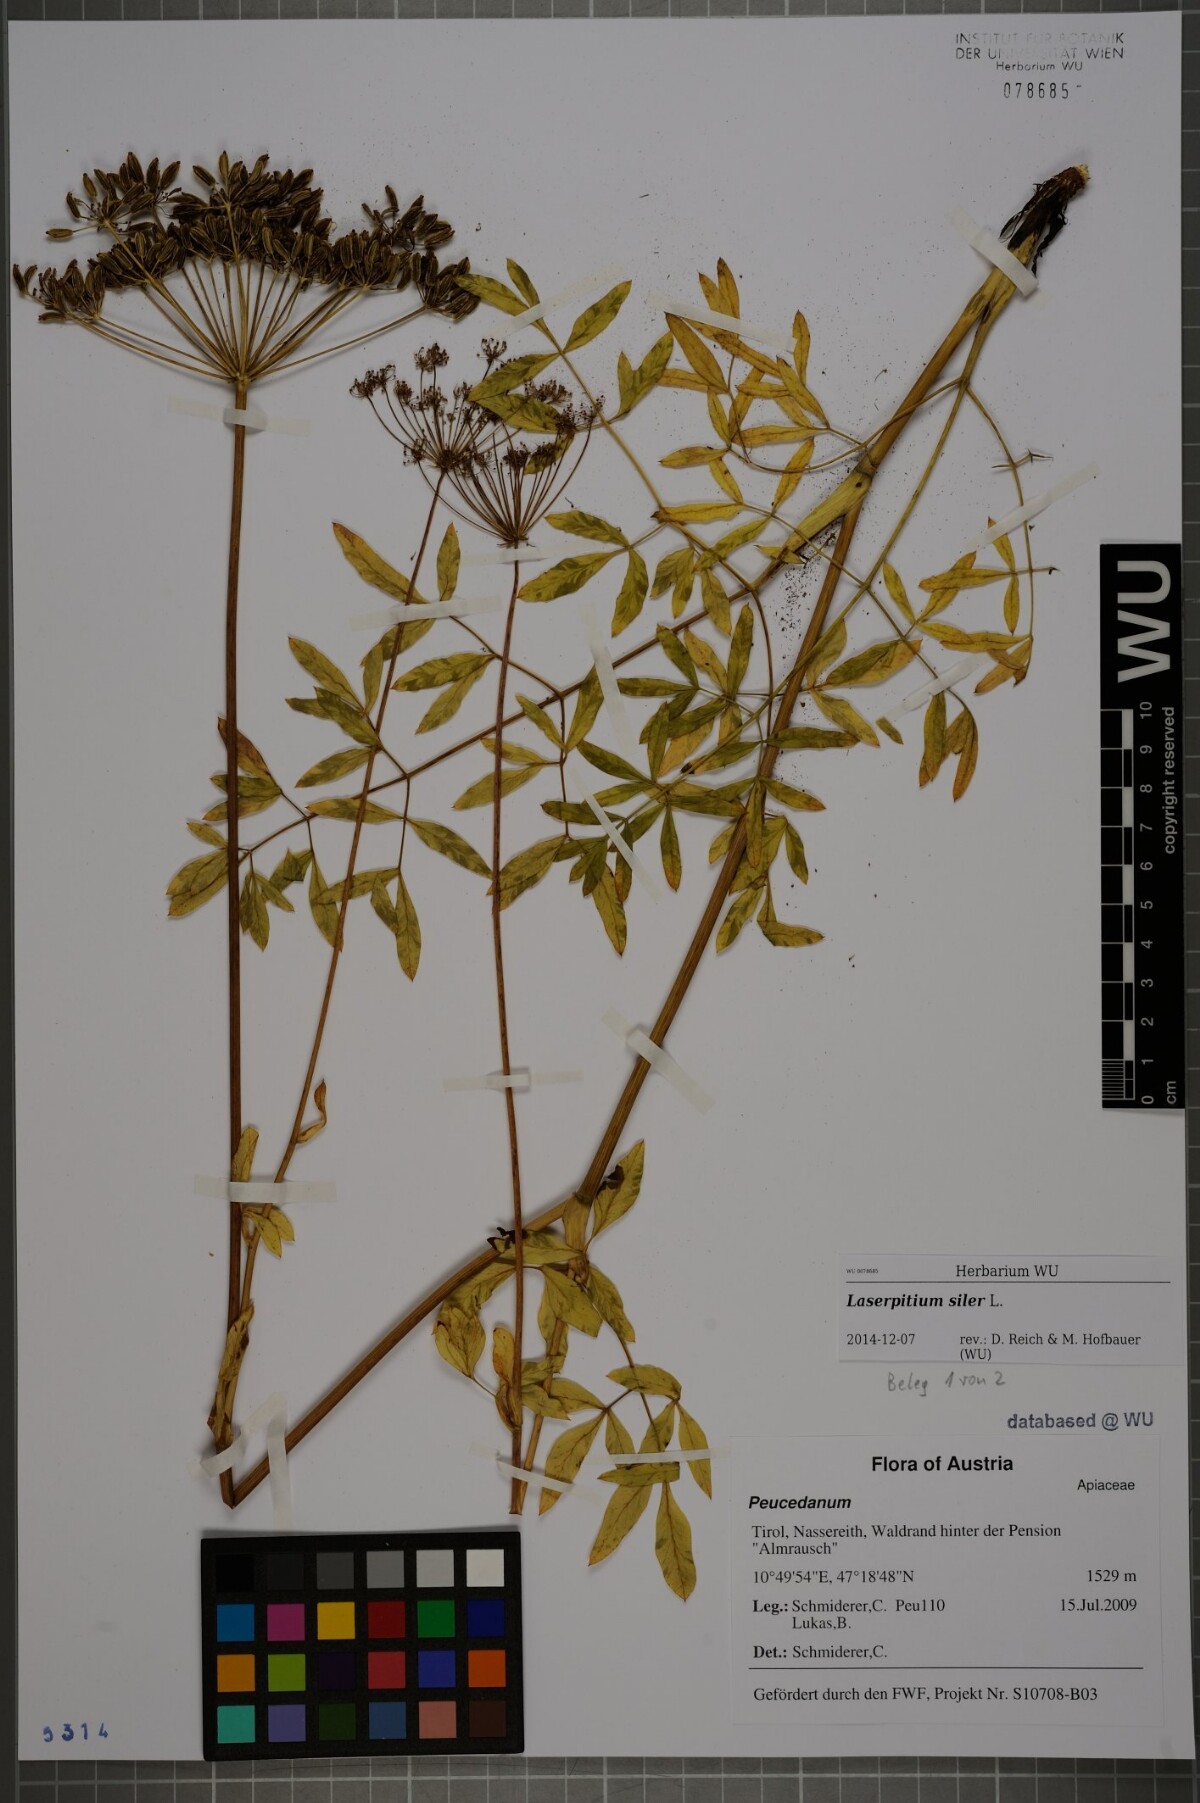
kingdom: Plantae
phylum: Tracheophyta
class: Magnoliopsida
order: Apiales
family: Apiaceae
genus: Siler
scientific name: Siler montanum
